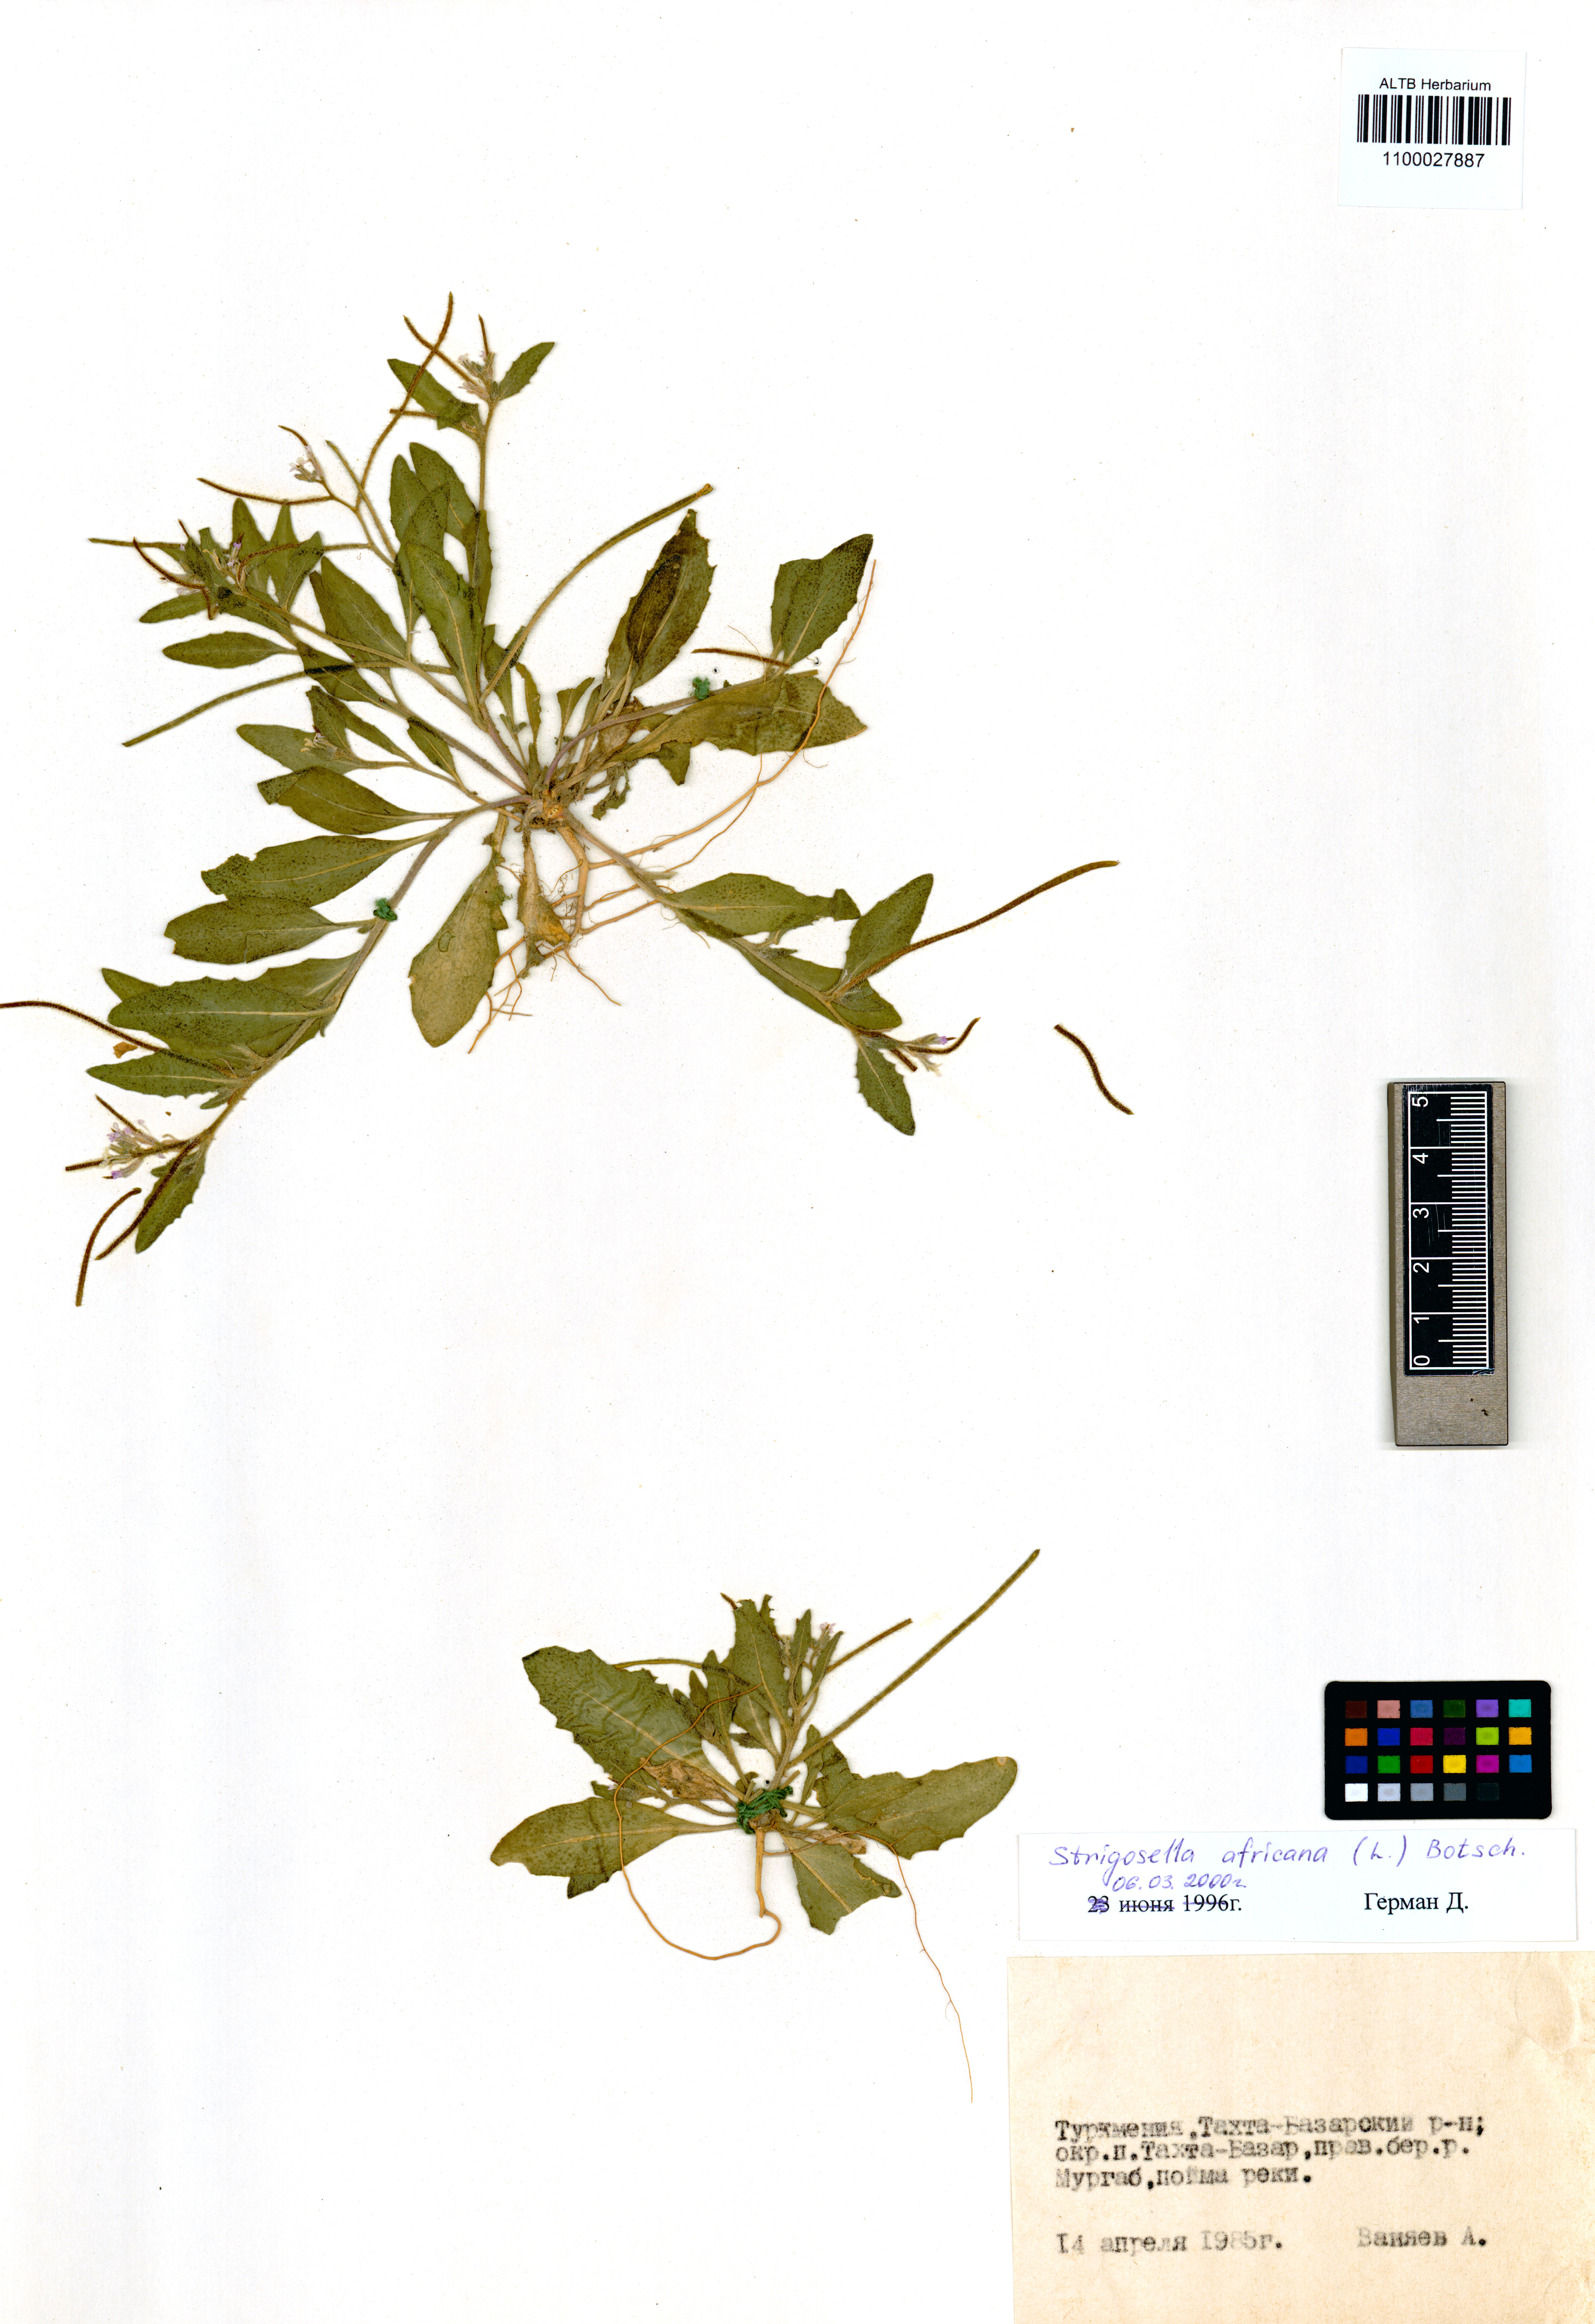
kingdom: Plantae
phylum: Tracheophyta
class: Magnoliopsida
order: Brassicales
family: Brassicaceae
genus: Strigosella
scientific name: Strigosella africana
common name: African mustard
